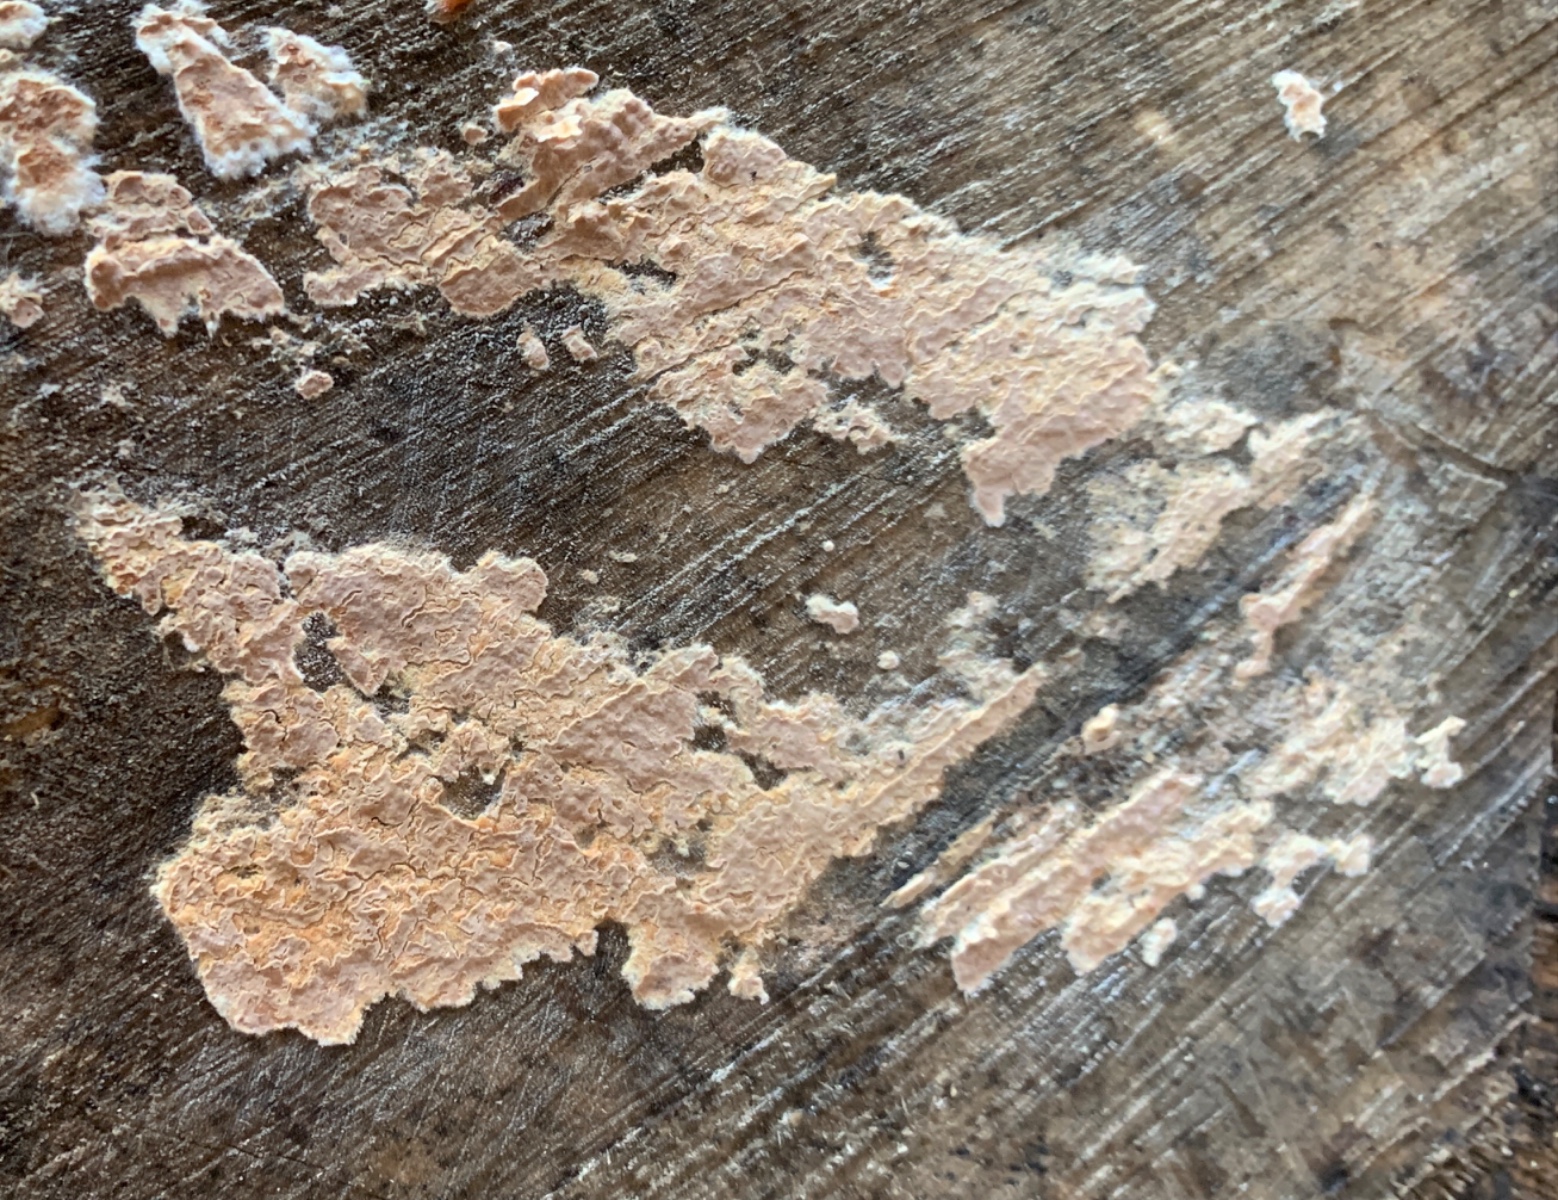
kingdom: Fungi
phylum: Basidiomycota
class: Agaricomycetes
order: Agaricales
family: Physalacriaceae
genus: Cylindrobasidium
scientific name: Cylindrobasidium evolvens
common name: sprækkehinde
